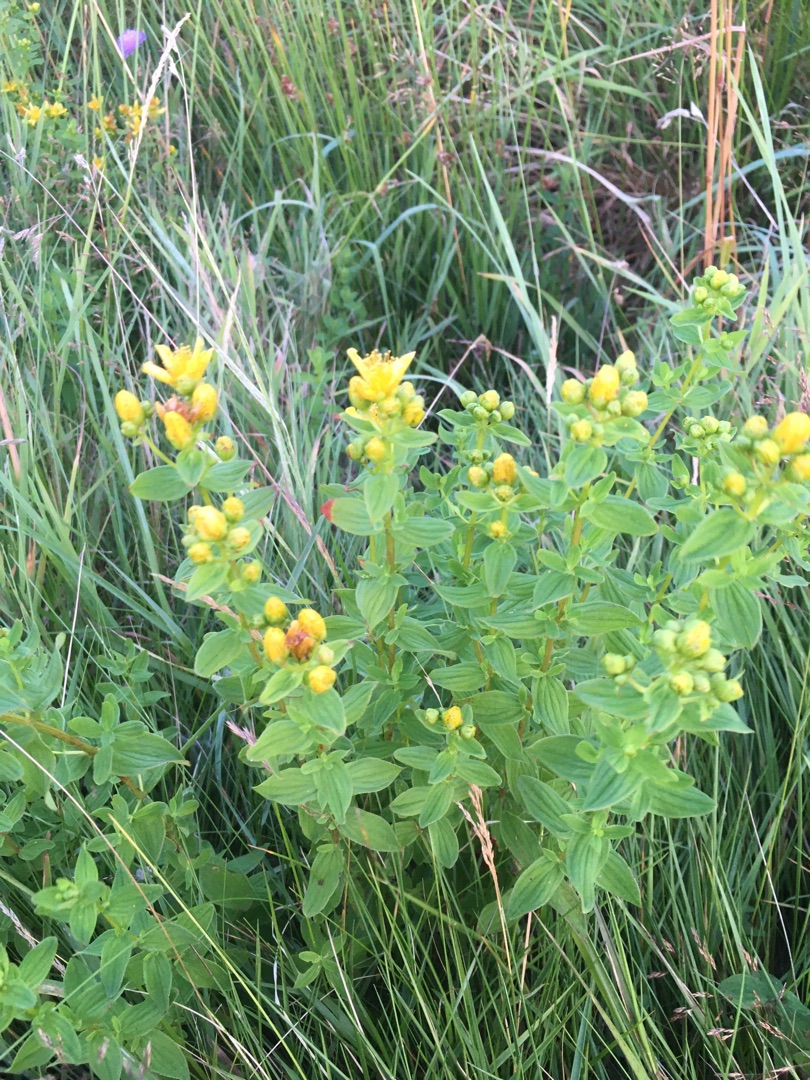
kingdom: Plantae
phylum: Tracheophyta
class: Magnoliopsida
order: Malpighiales
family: Hypericaceae
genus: Hypericum
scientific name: Hypericum maculatum
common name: Kantet perikon
